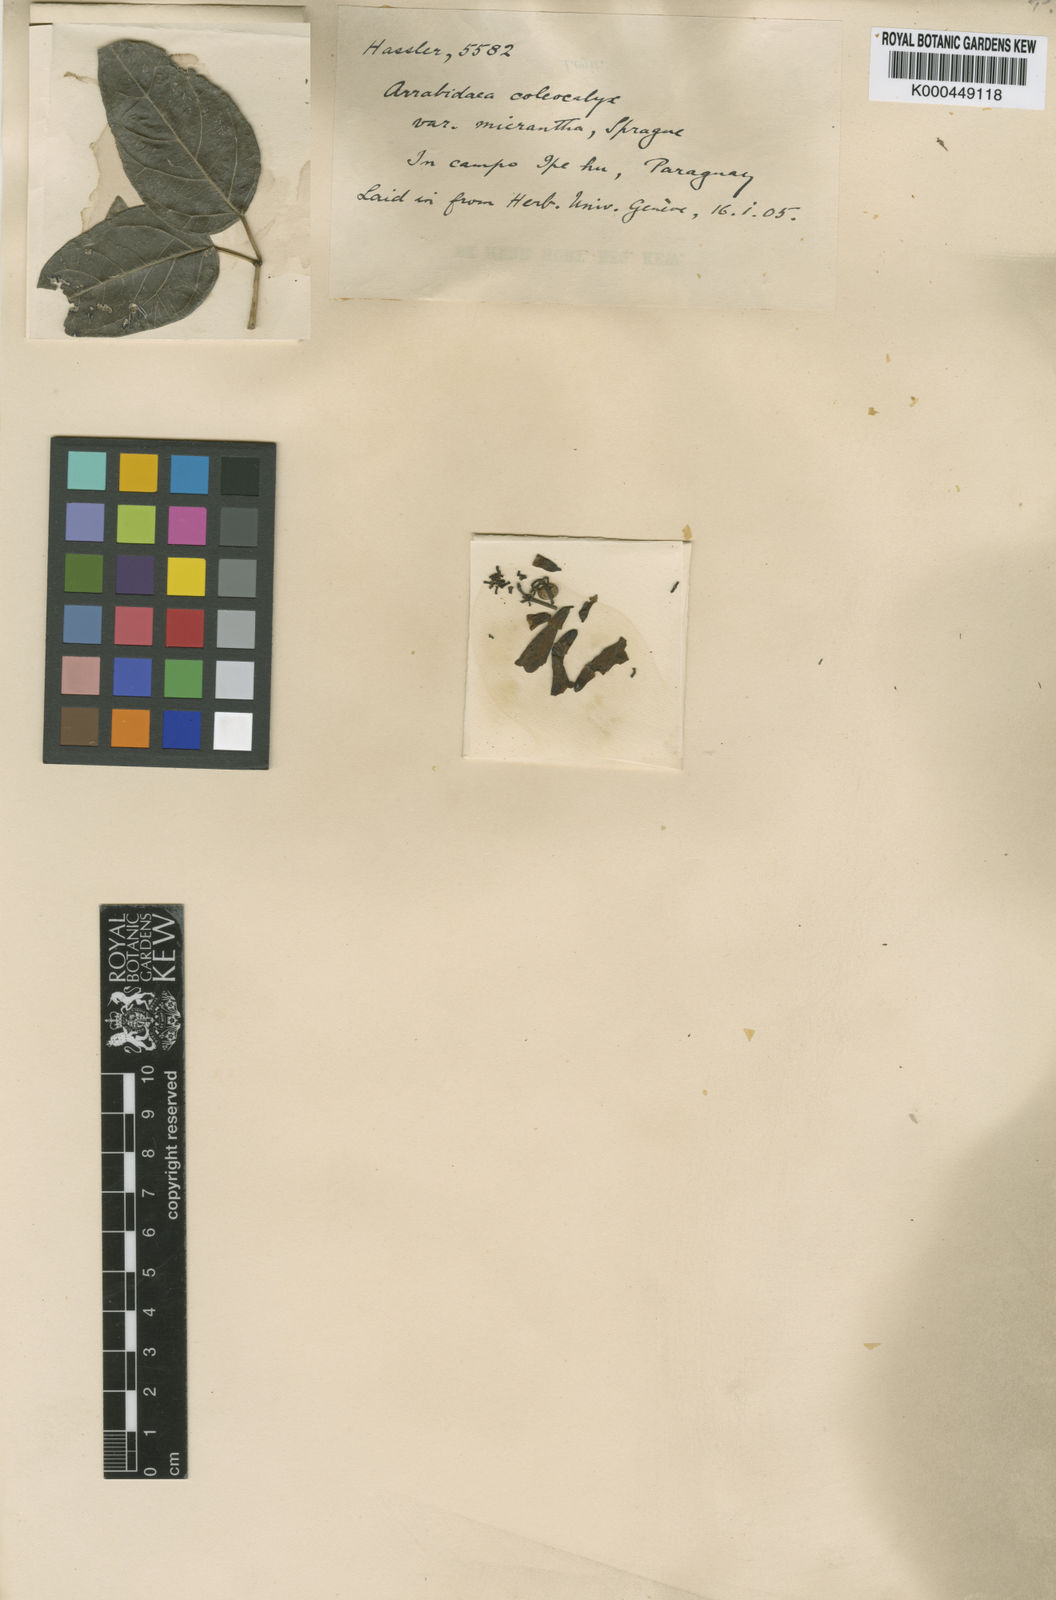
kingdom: Plantae
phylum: Tracheophyta
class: Magnoliopsida
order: Lamiales
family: Bignoniaceae
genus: Fridericia
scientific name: Fridericia caudigera
